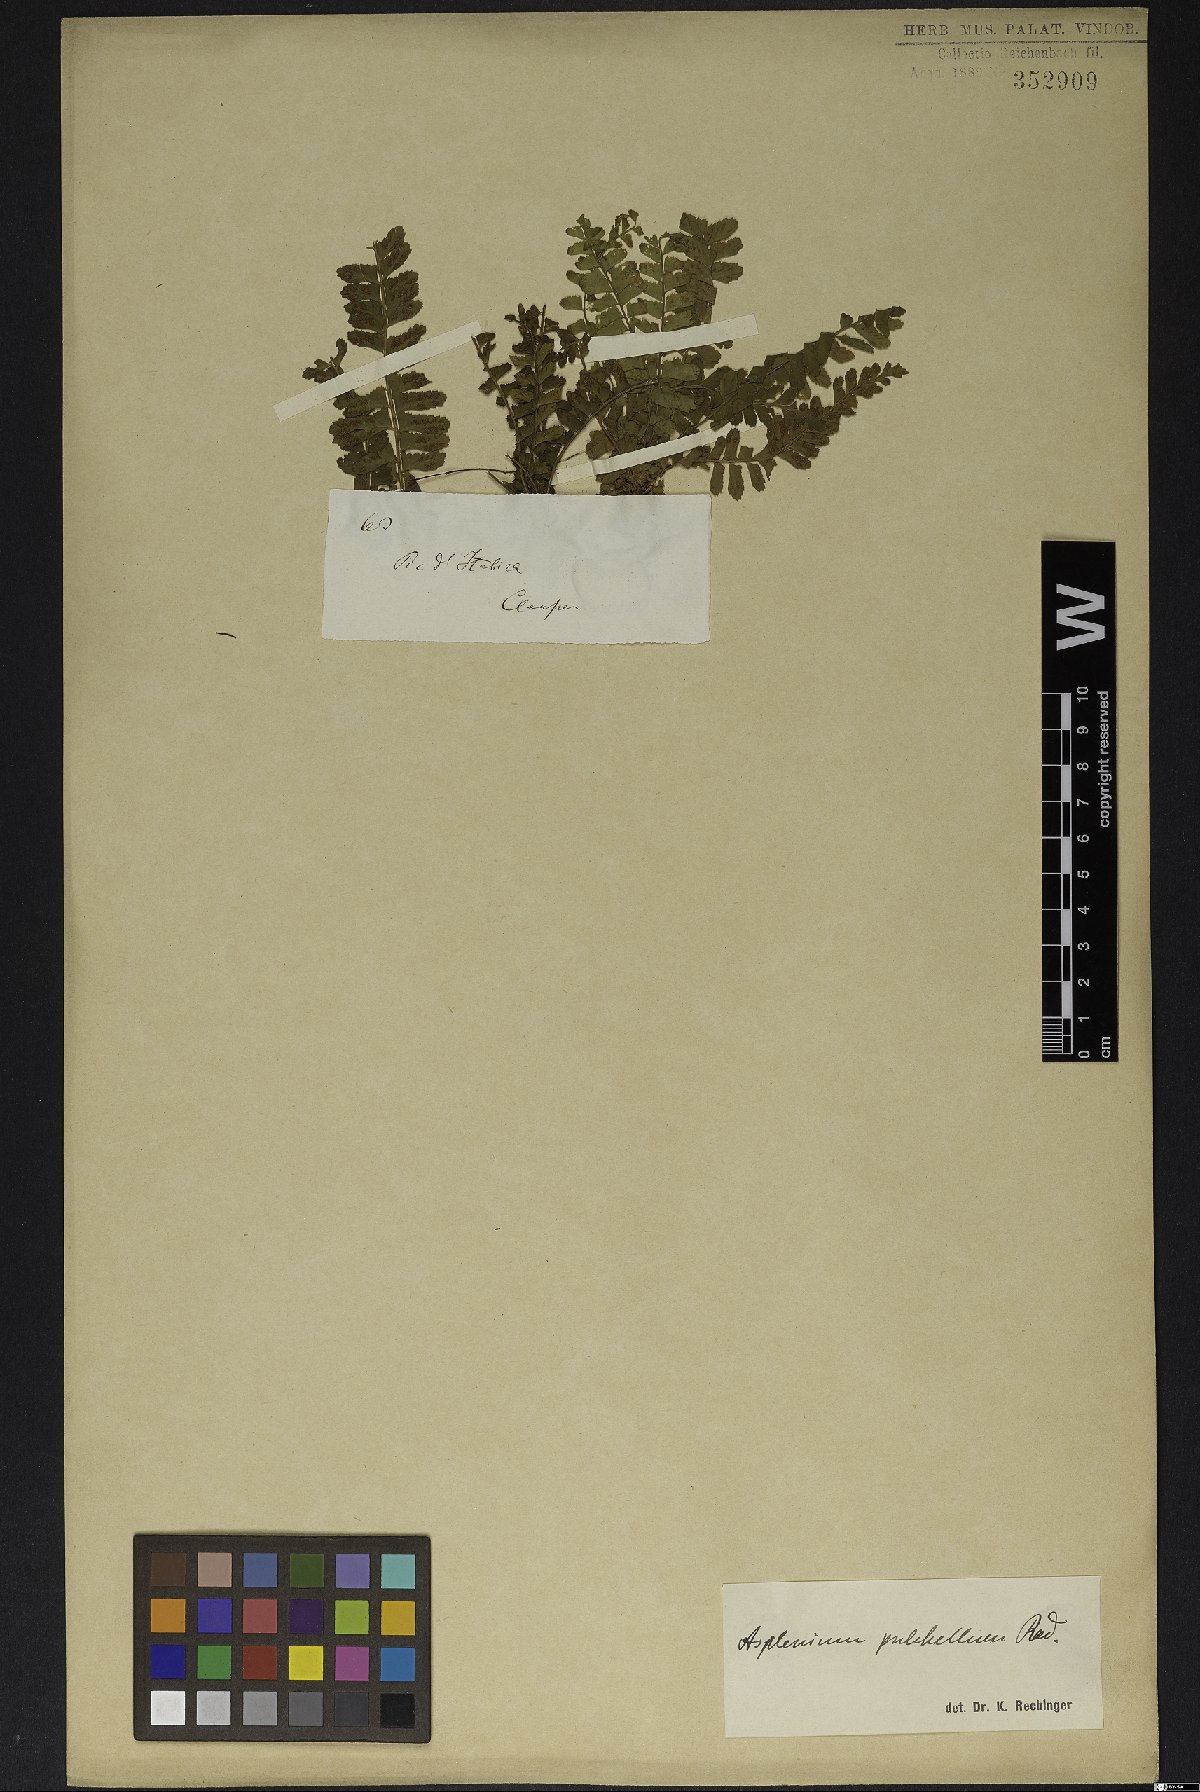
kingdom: Plantae
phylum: Tracheophyta
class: Polypodiopsida
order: Polypodiales
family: Aspleniaceae
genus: Asplenium
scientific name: Asplenium pulchellum
